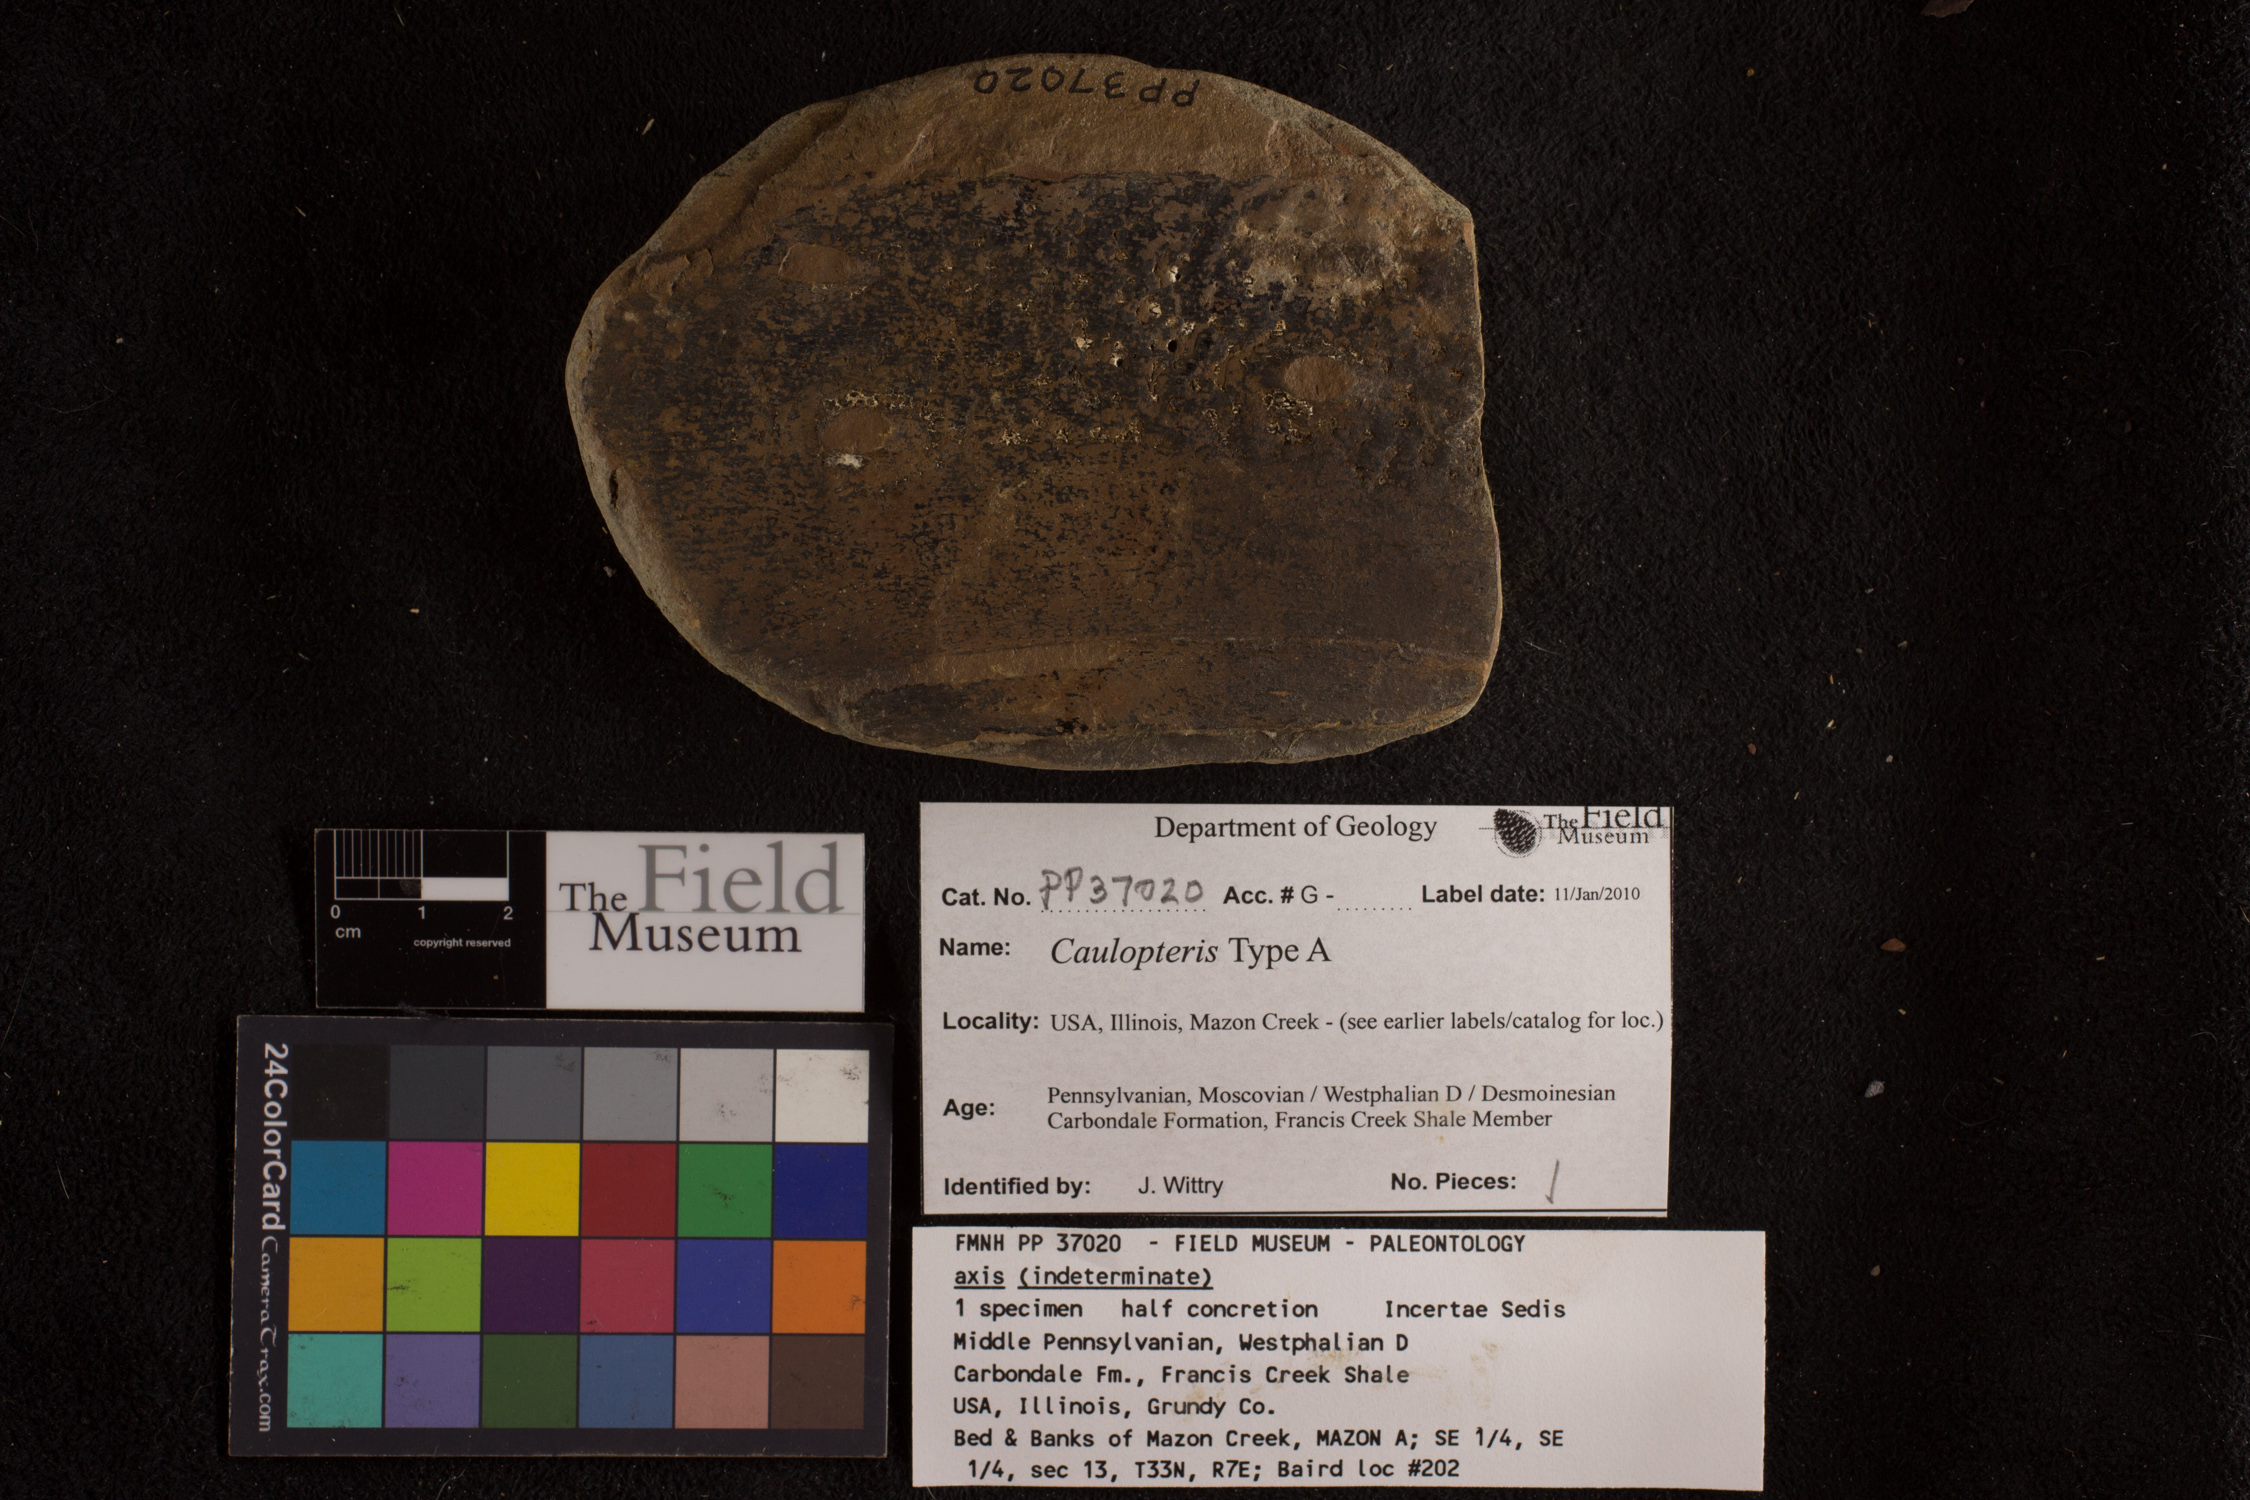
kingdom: Plantae
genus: Calamophyllites
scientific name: Calamophyllites
